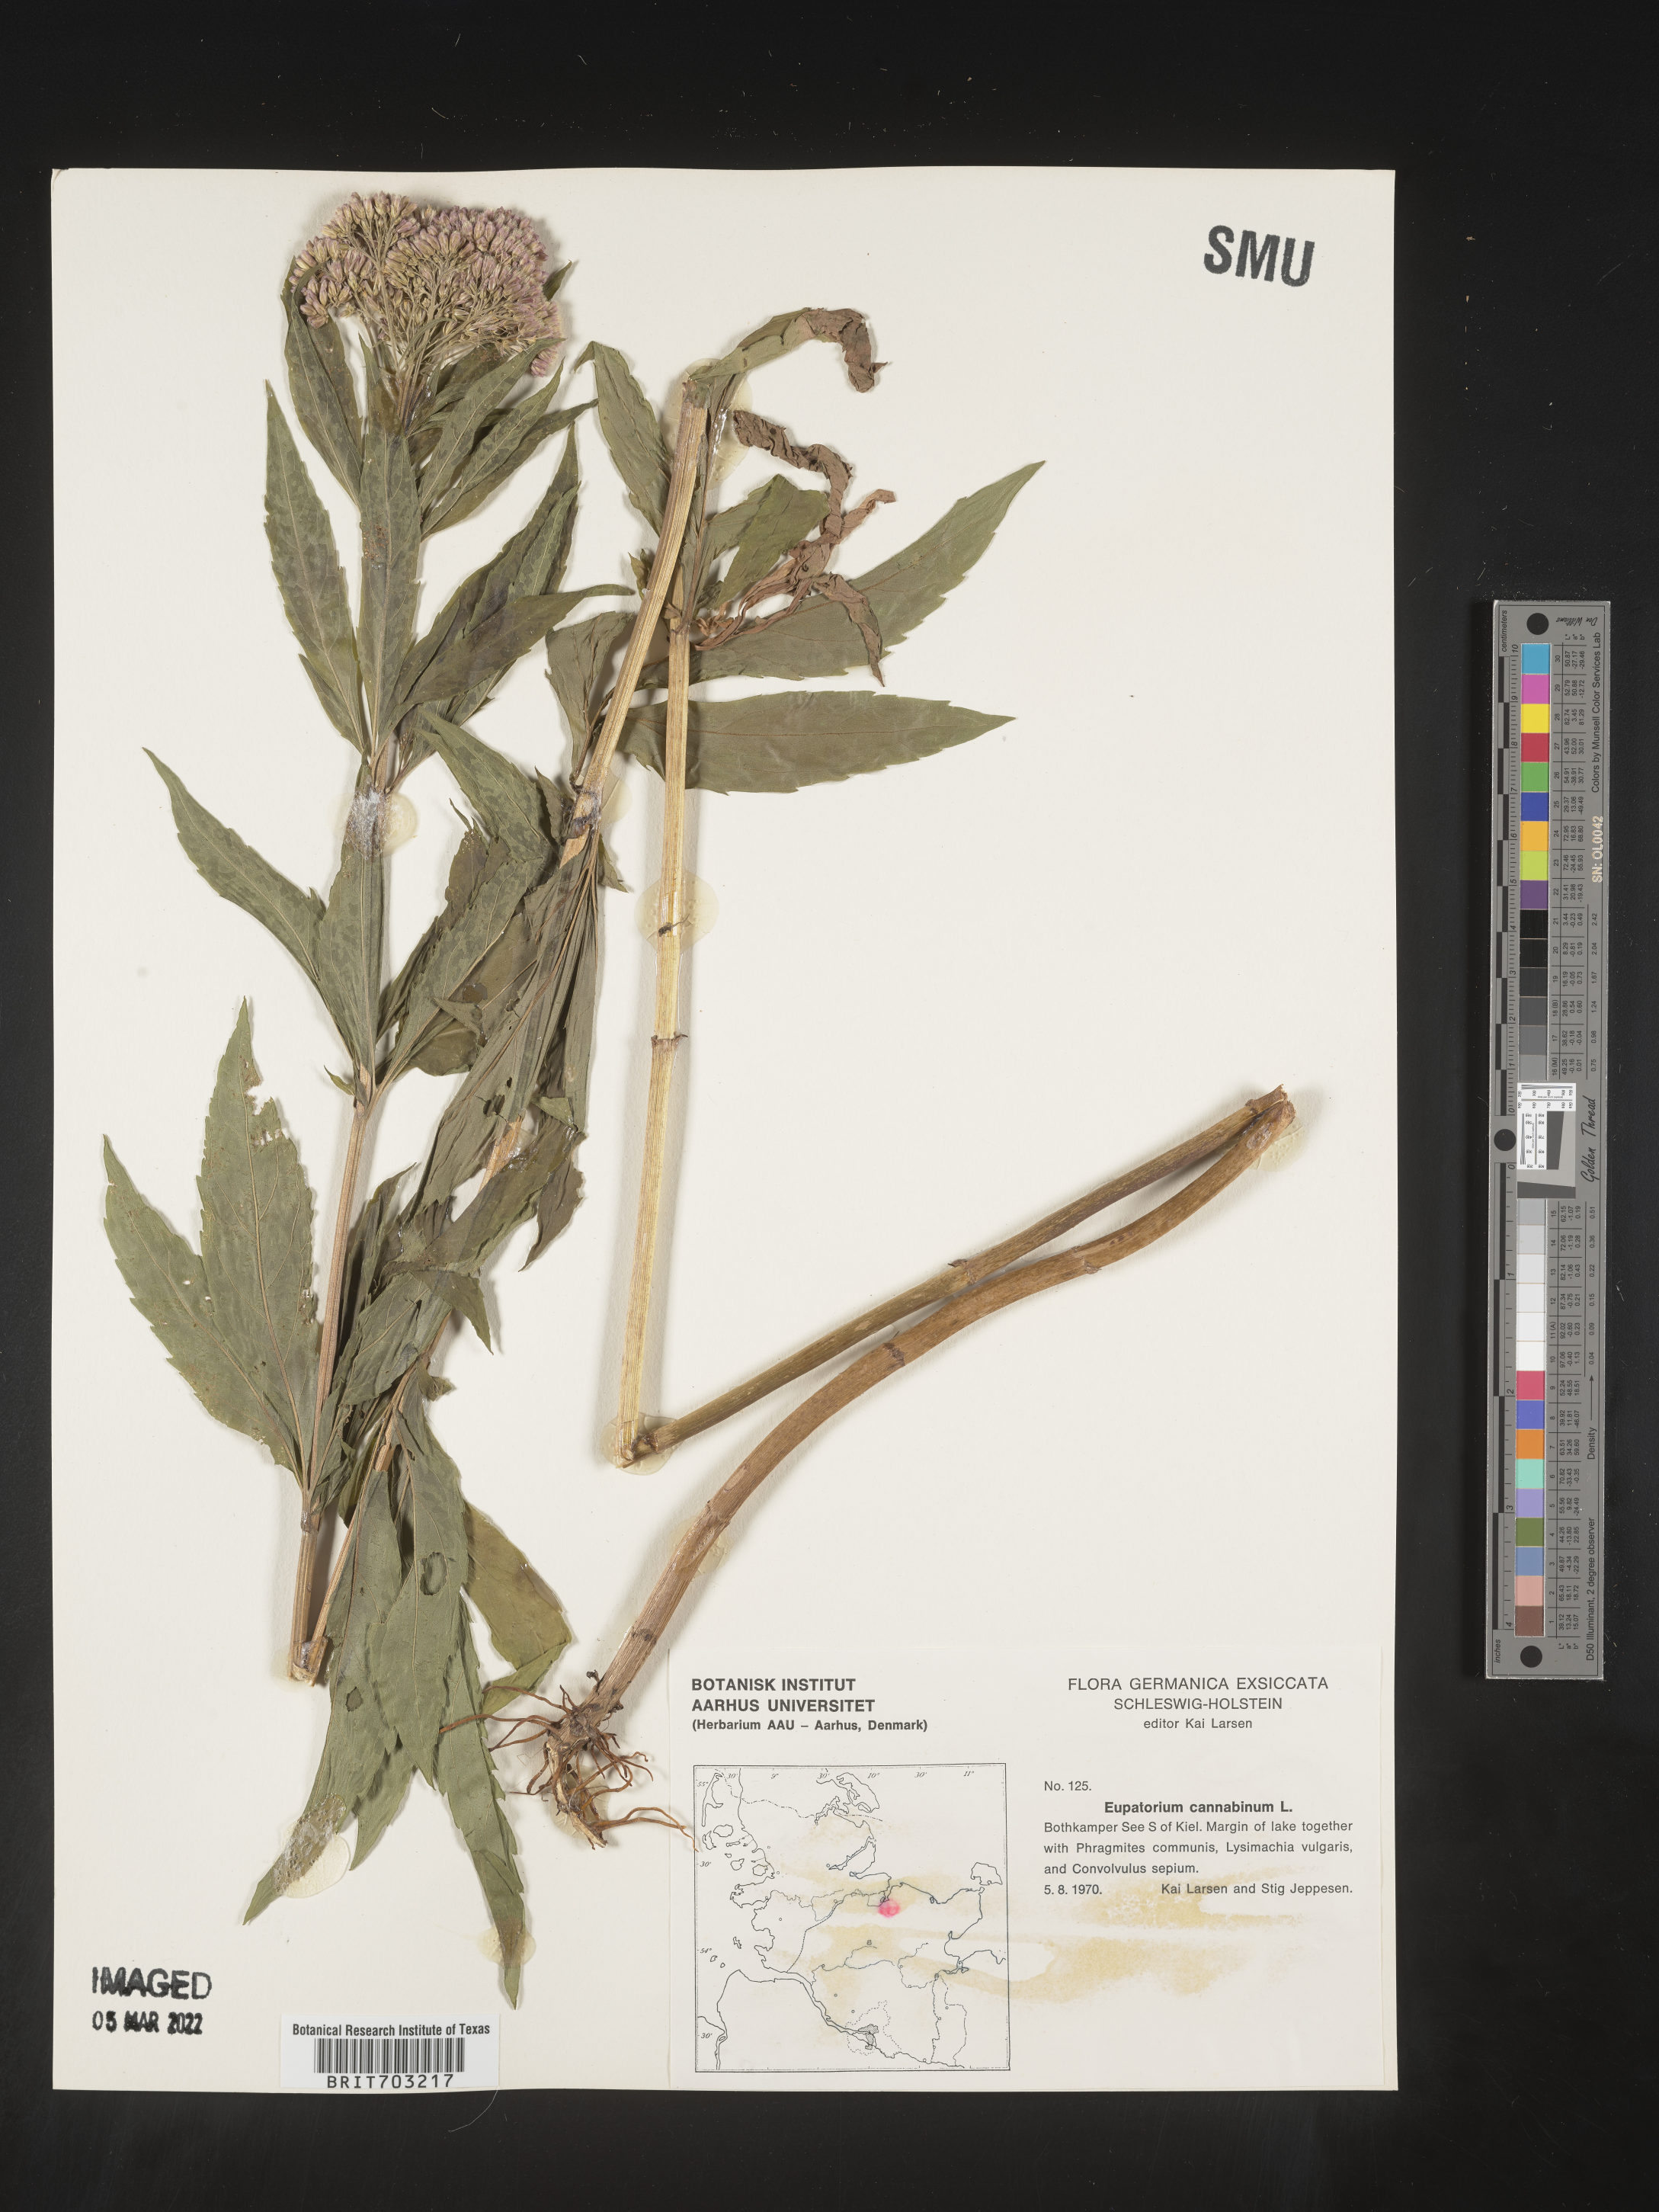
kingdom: Plantae
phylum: Tracheophyta
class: Magnoliopsida
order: Asterales
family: Asteraceae
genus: Eupatorium
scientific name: Eupatorium
